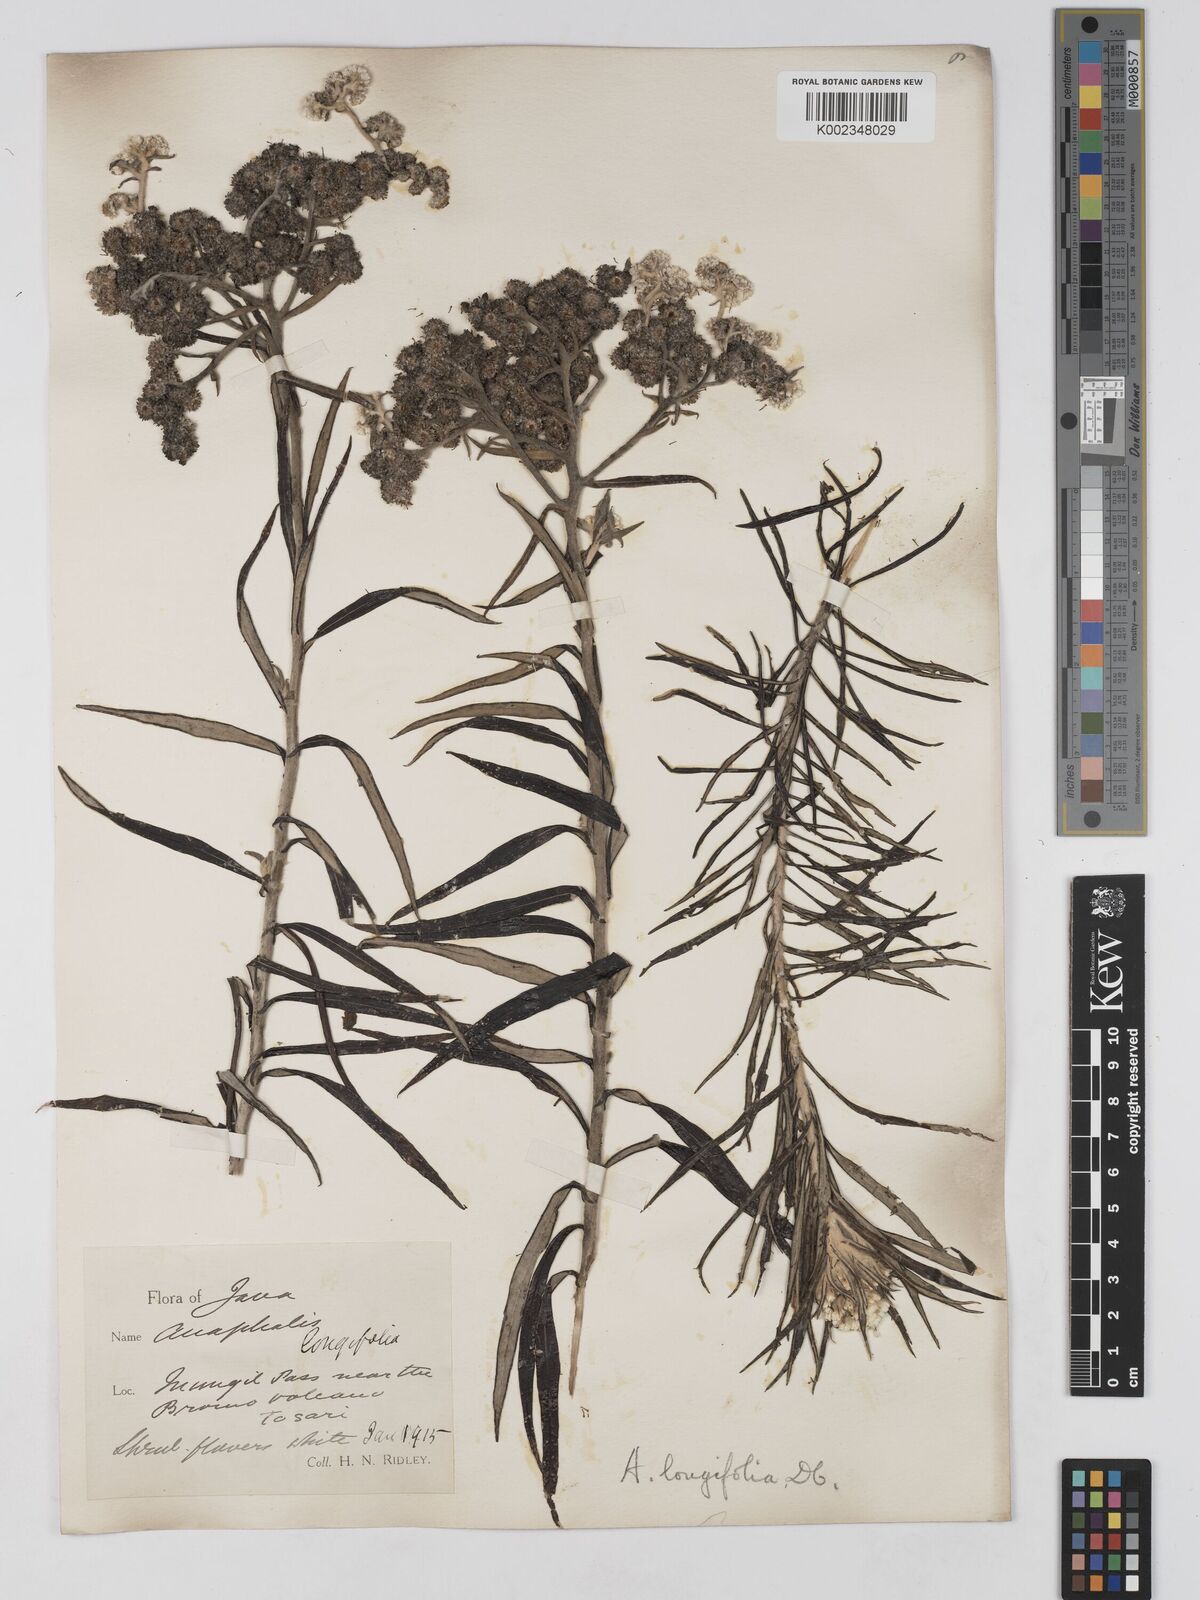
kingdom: Plantae
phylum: Tracheophyta
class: Magnoliopsida
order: Asterales
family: Asteraceae
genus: Anaphalis
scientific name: Anaphalis longifolia
